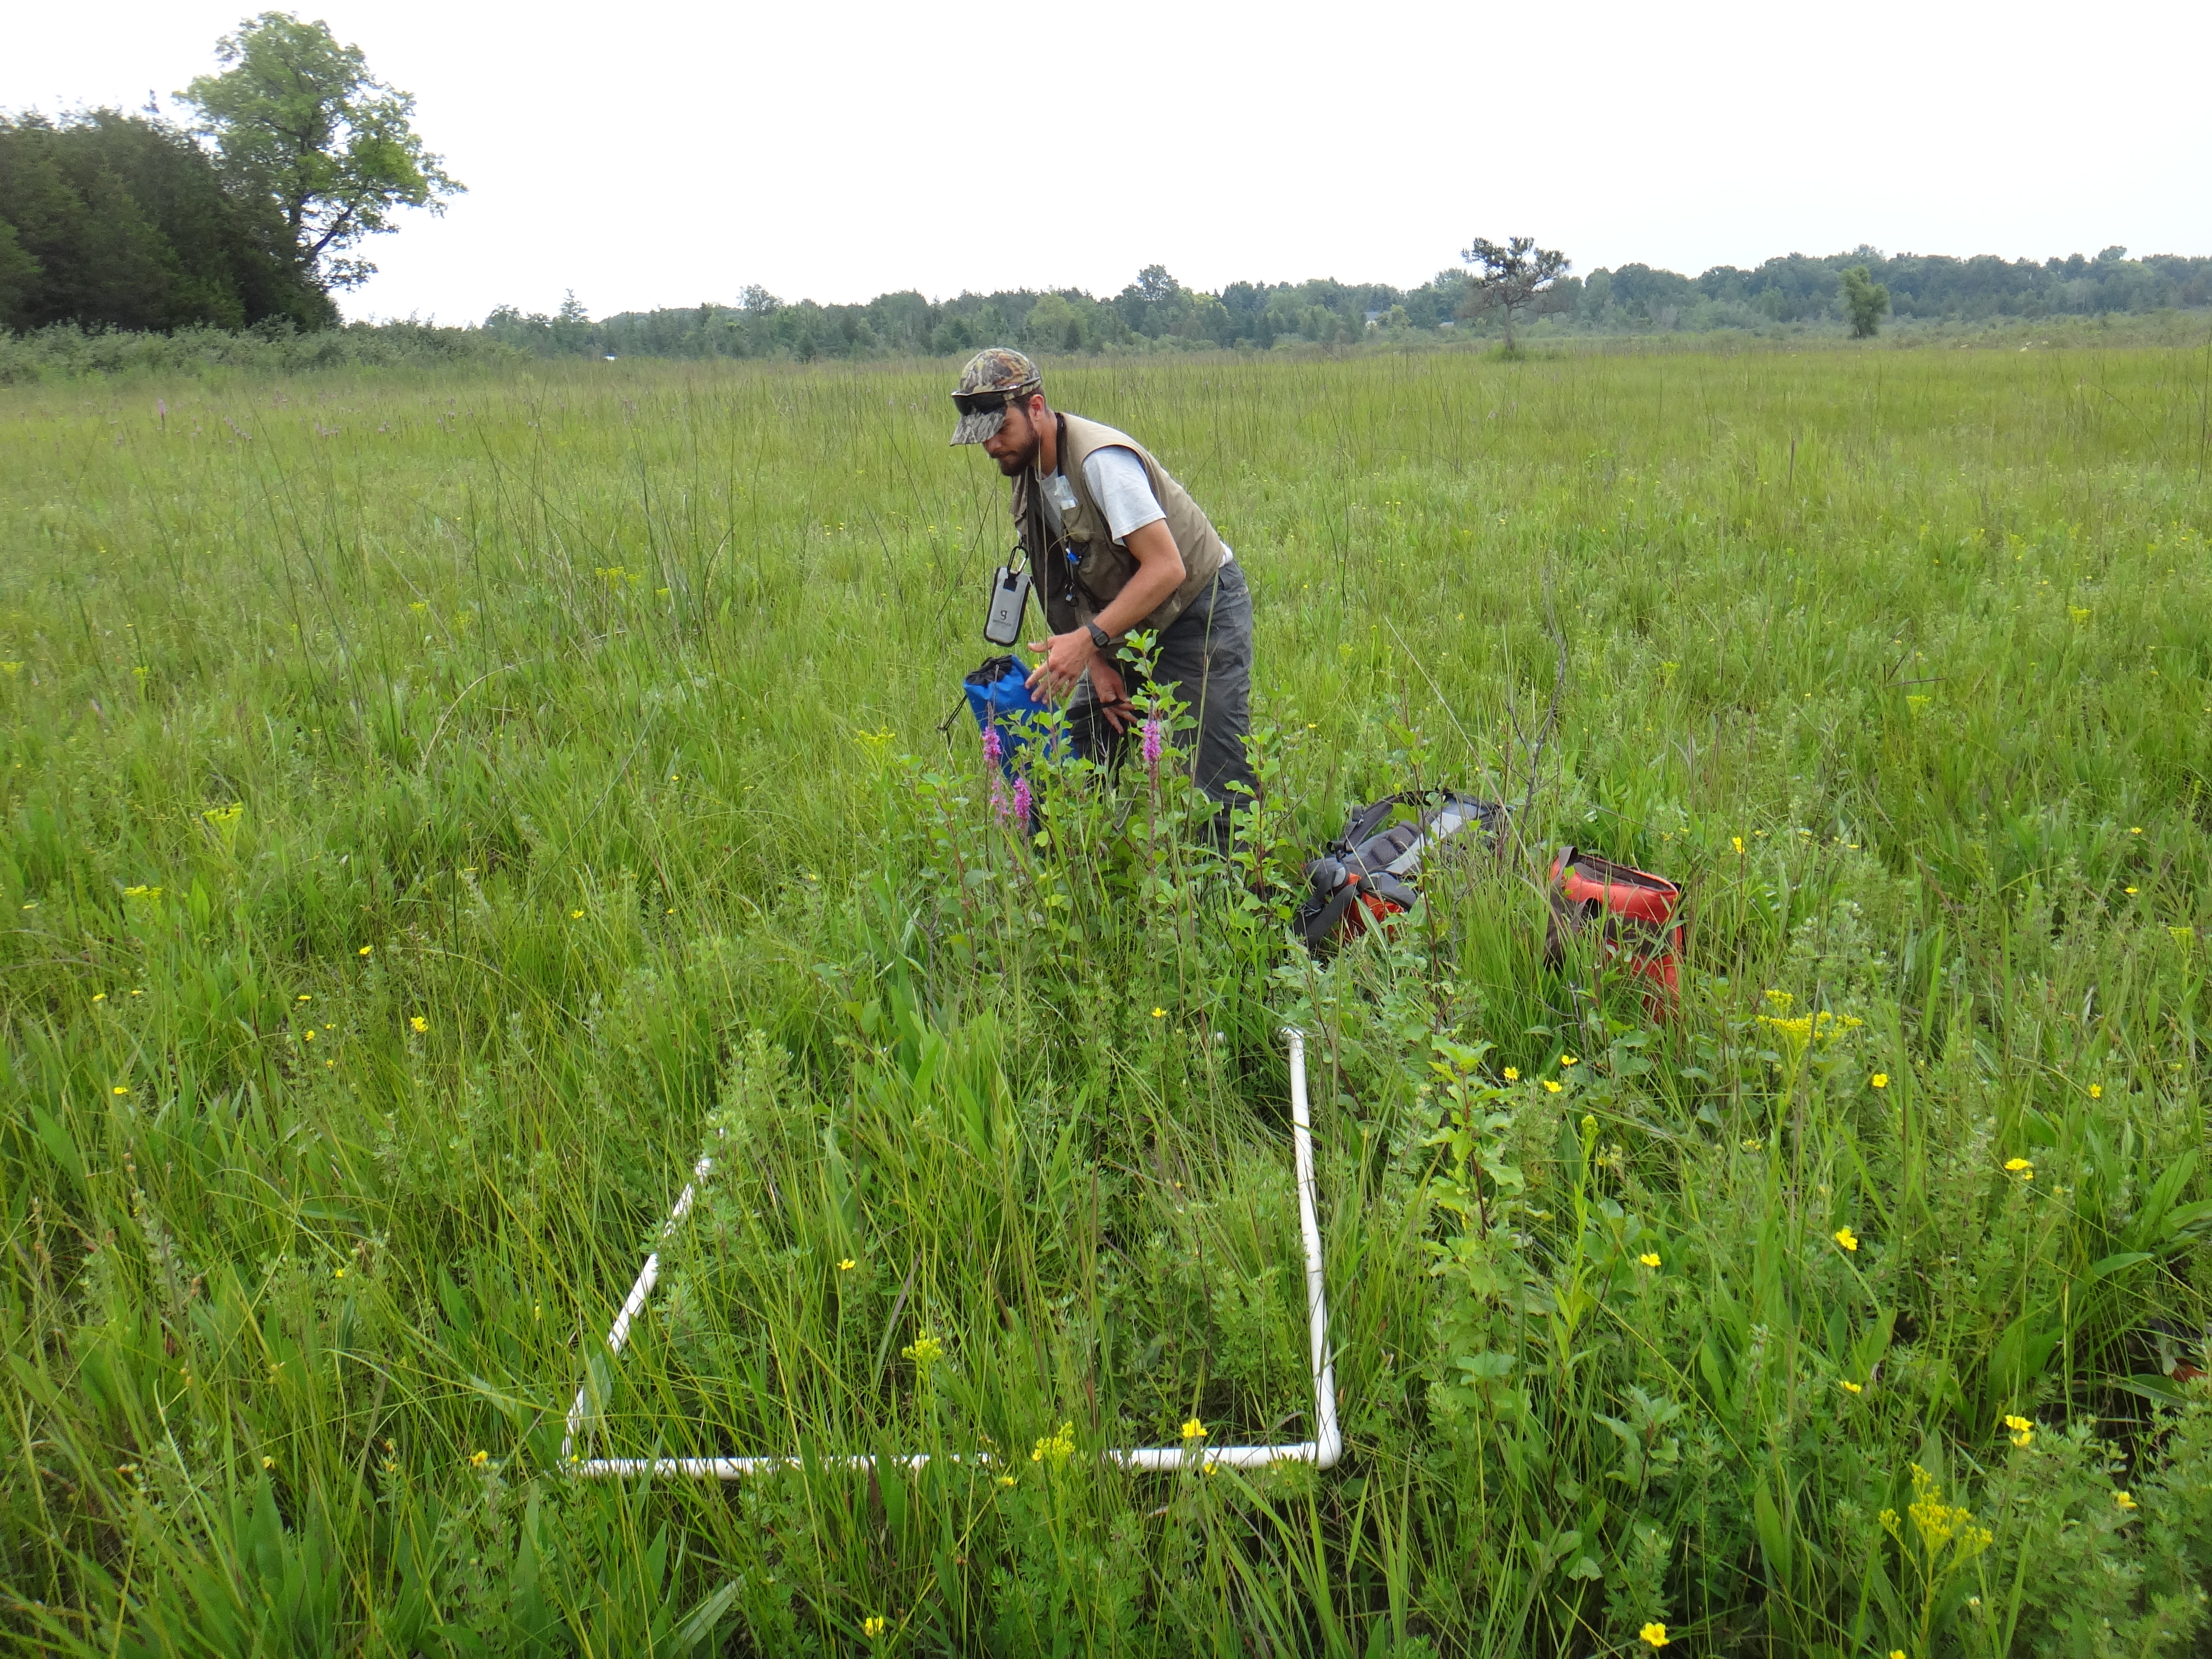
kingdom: Plantae
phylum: Tracheophyta
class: Magnoliopsida
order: Asterales
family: Asteraceae
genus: Solidago
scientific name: Solidago ohioensis
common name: Ohio goldenrod
